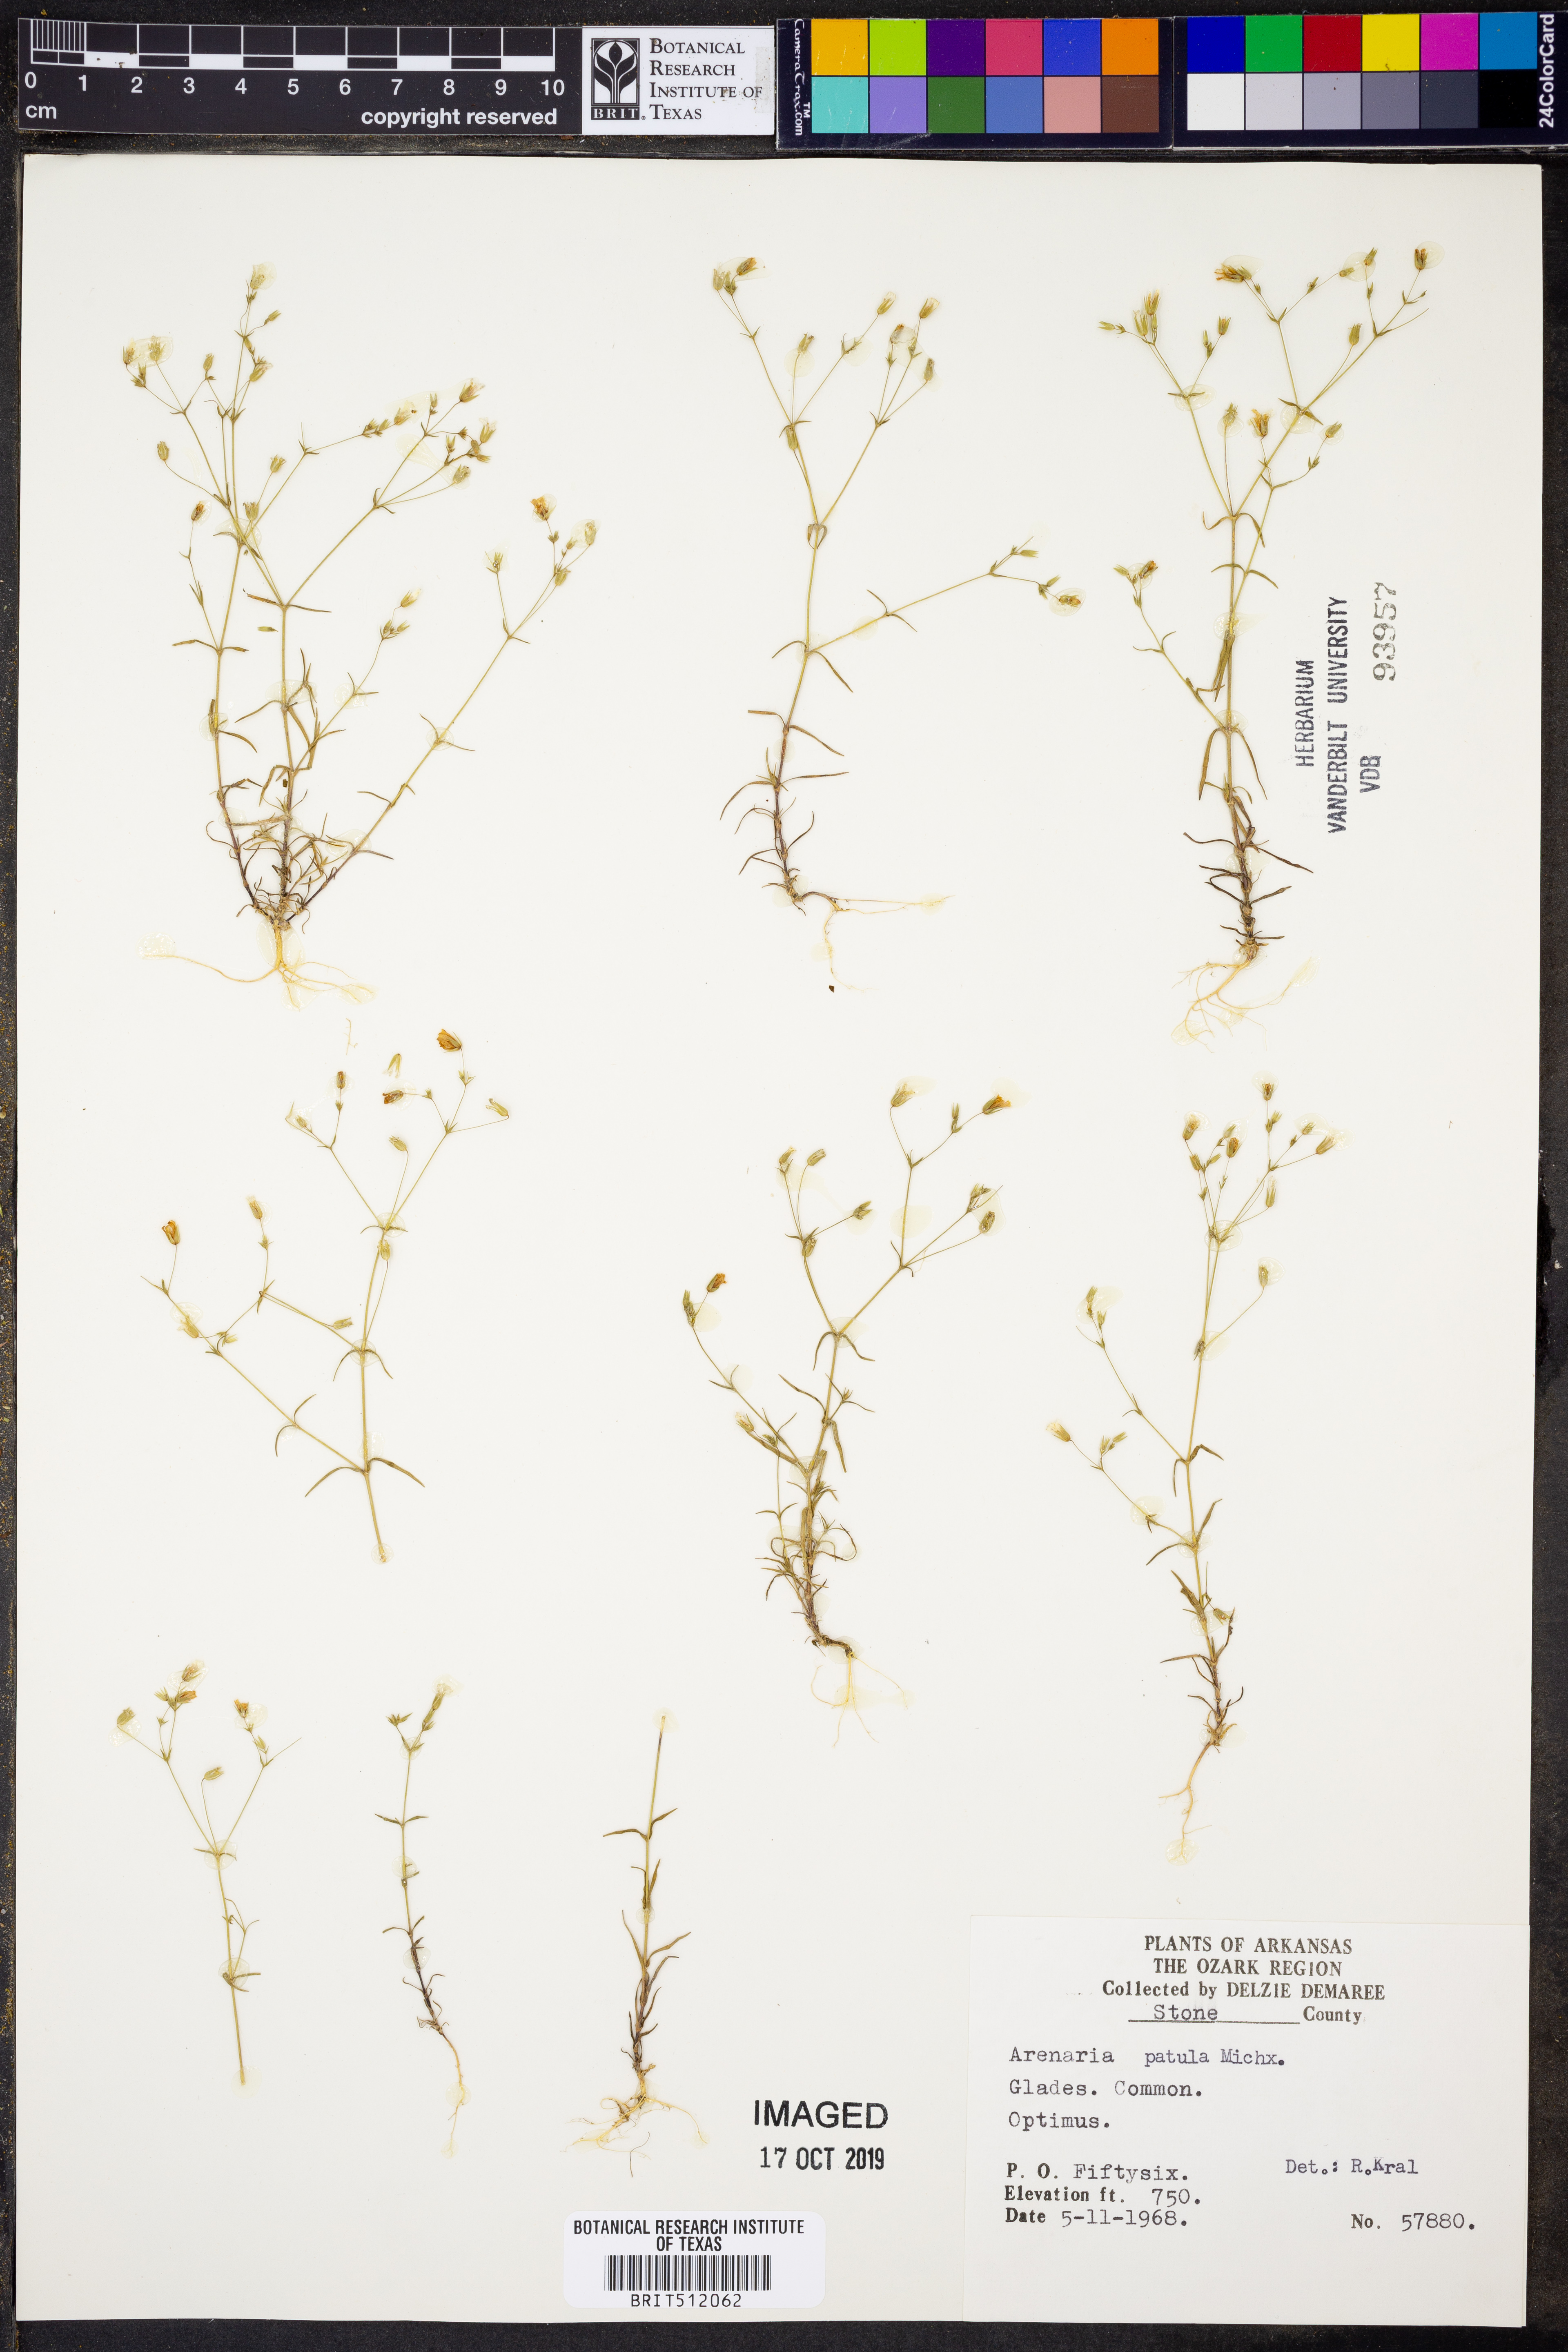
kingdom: Plantae
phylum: Tracheophyta
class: Magnoliopsida
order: Caryophyllales
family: Caryophyllaceae
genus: Mononeuria
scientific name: Mononeuria patula
